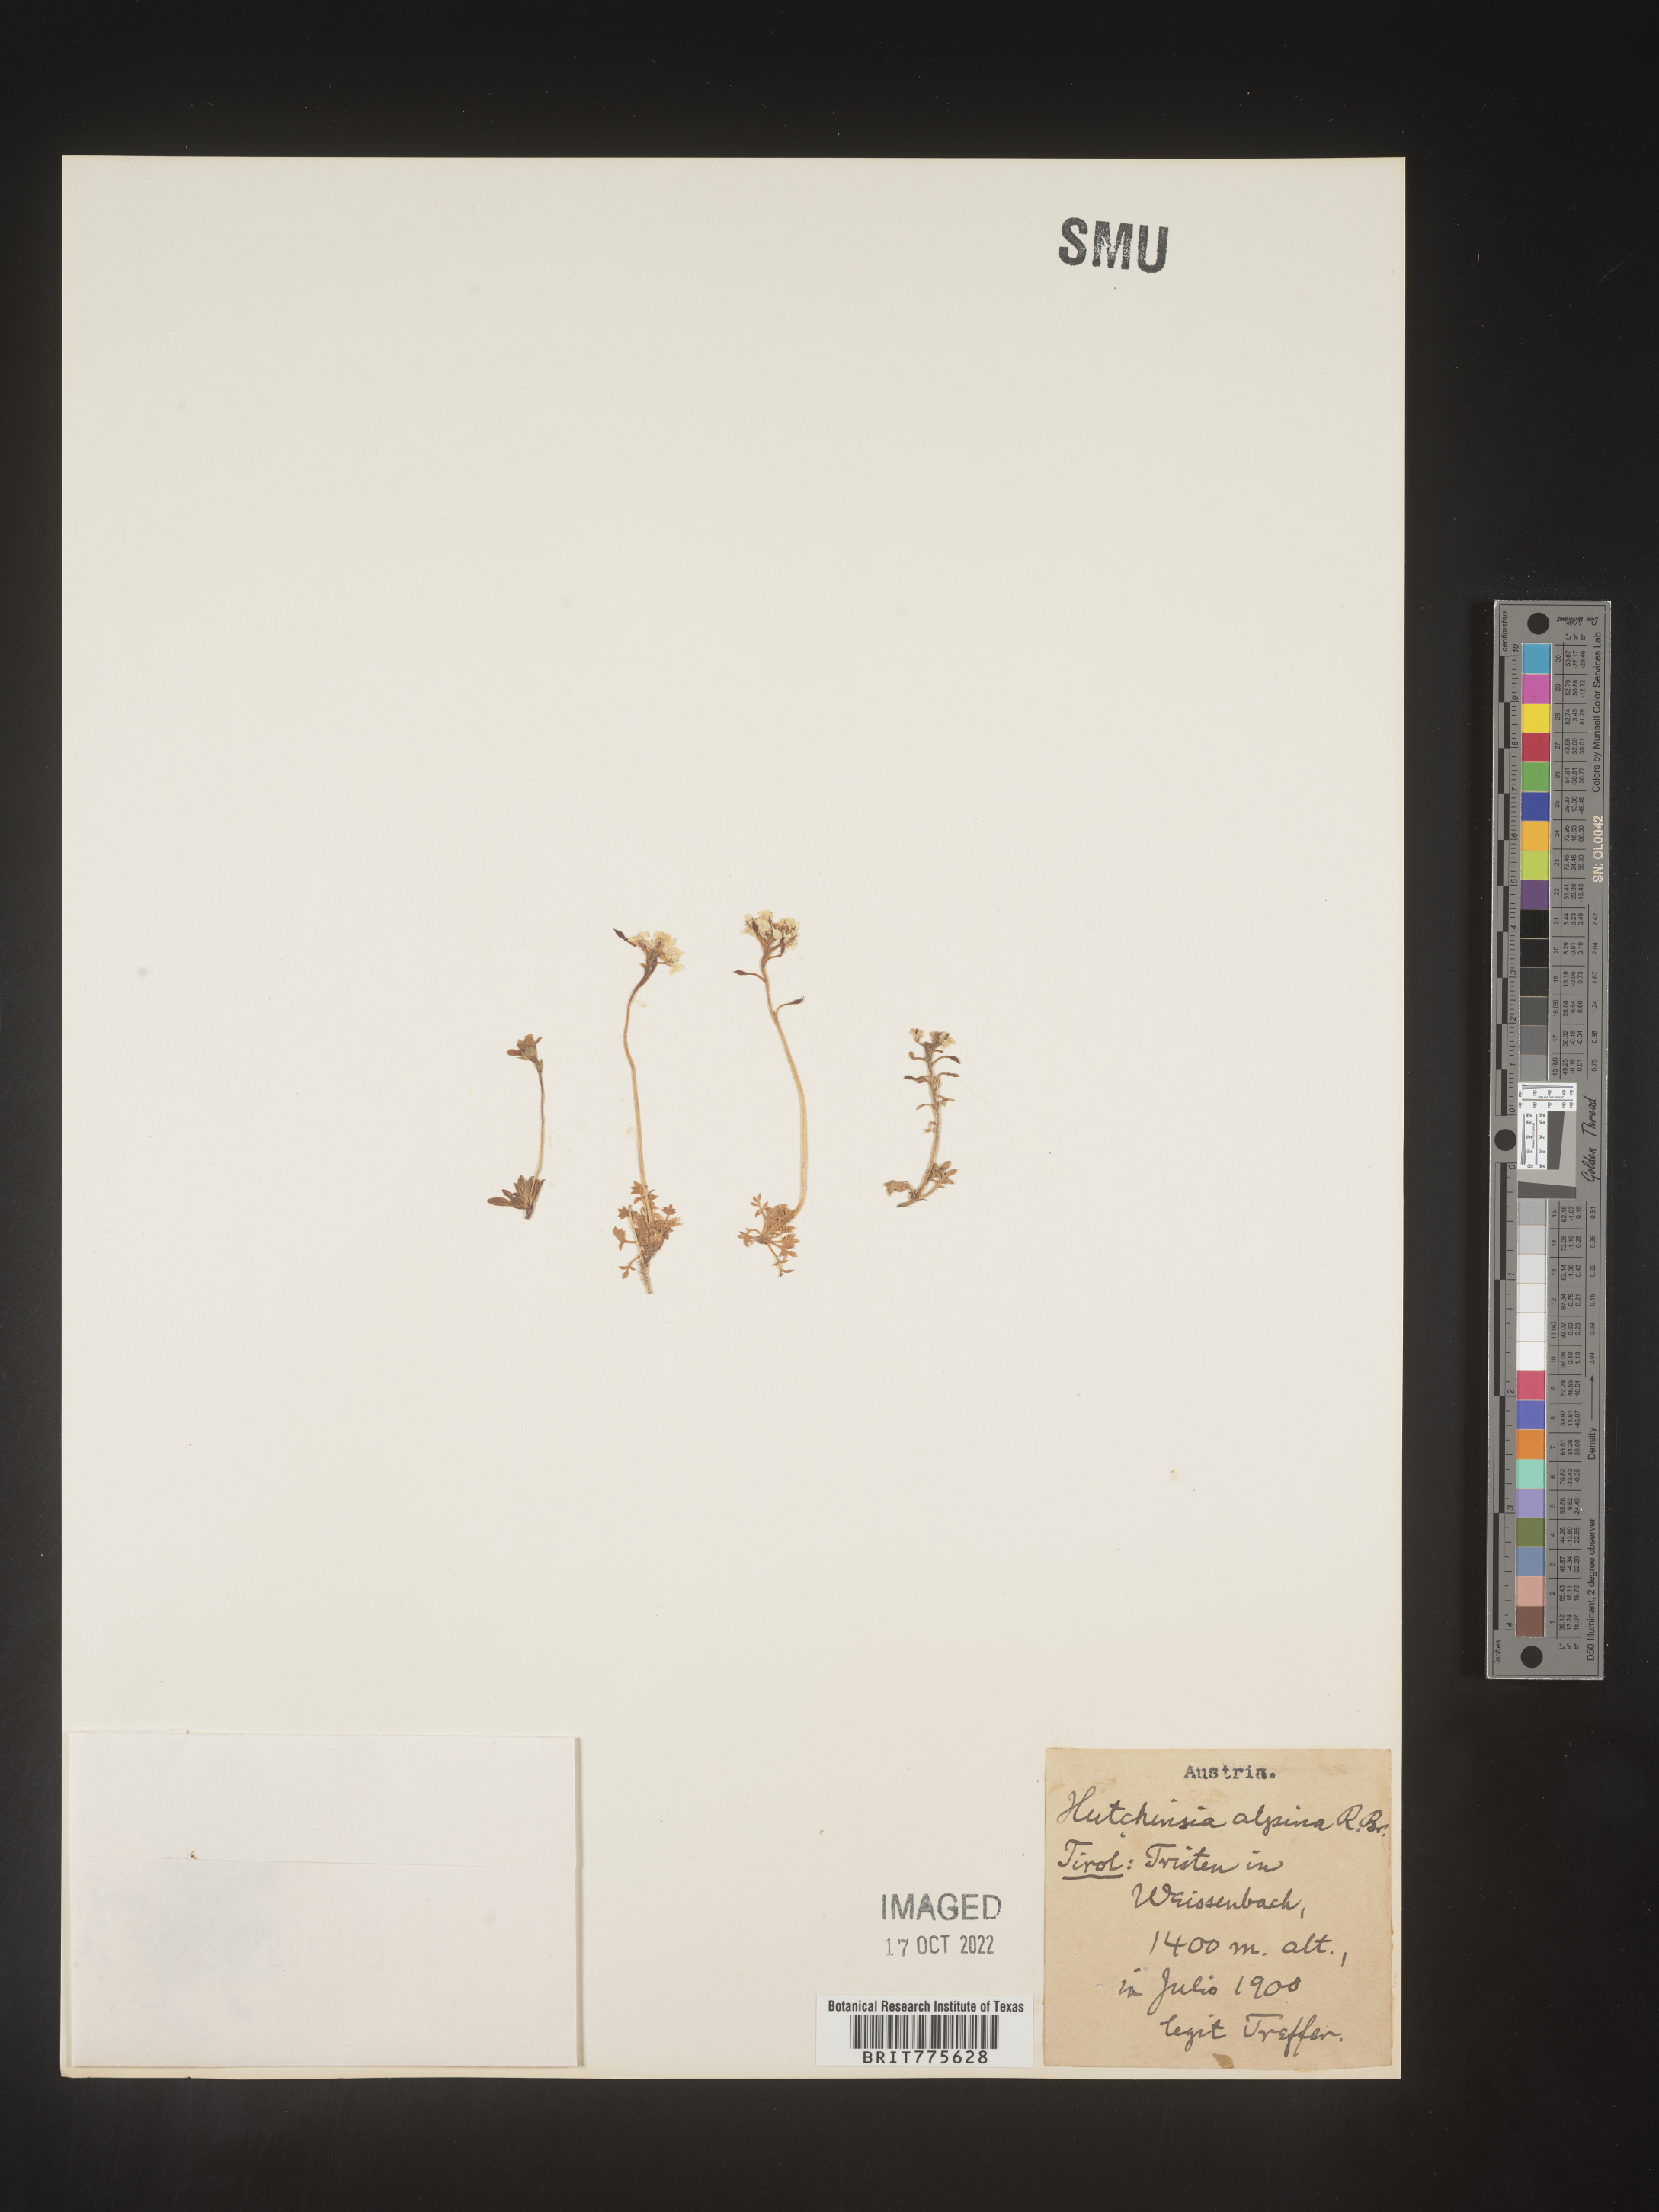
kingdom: Plantae
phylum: Rhodophyta
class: Florideophyceae
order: Ceramiales
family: Rhodomelaceae
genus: Hutchinsia
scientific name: Hutchinsia
